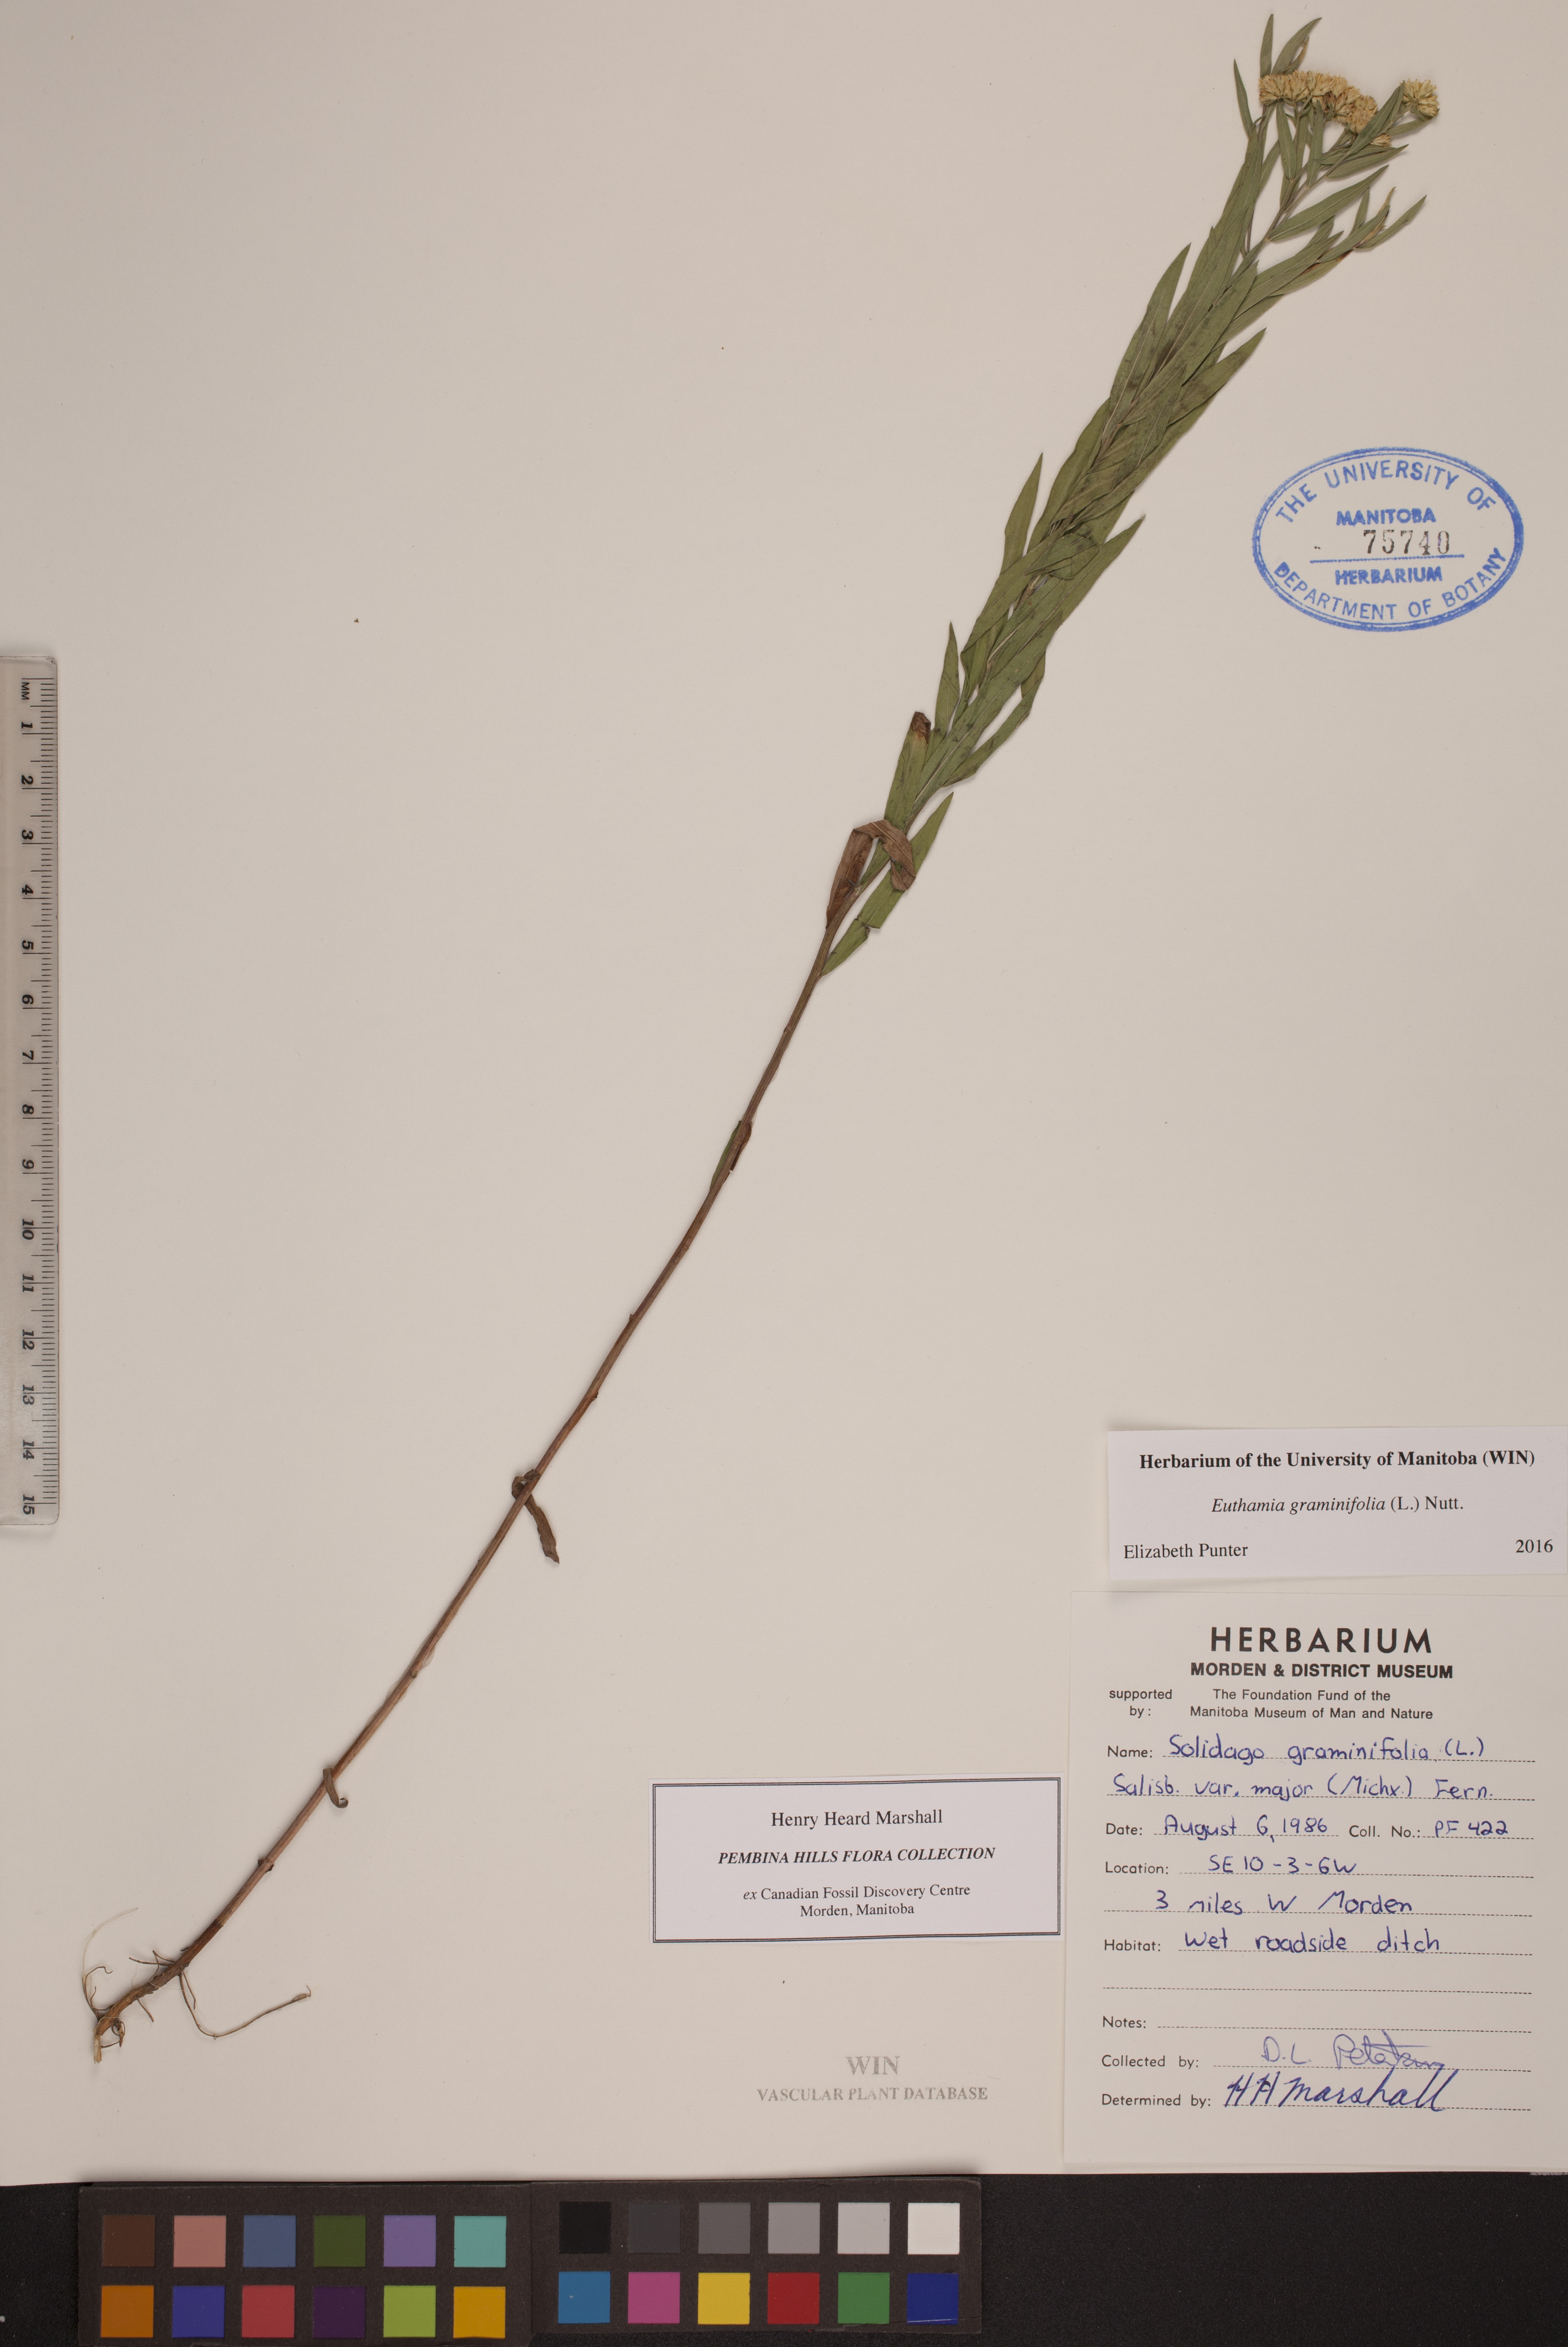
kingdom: Plantae
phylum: Tracheophyta
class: Magnoliopsida
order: Asterales
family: Asteraceae
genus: Euthamia
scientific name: Euthamia graminifolia
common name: Common goldentop
